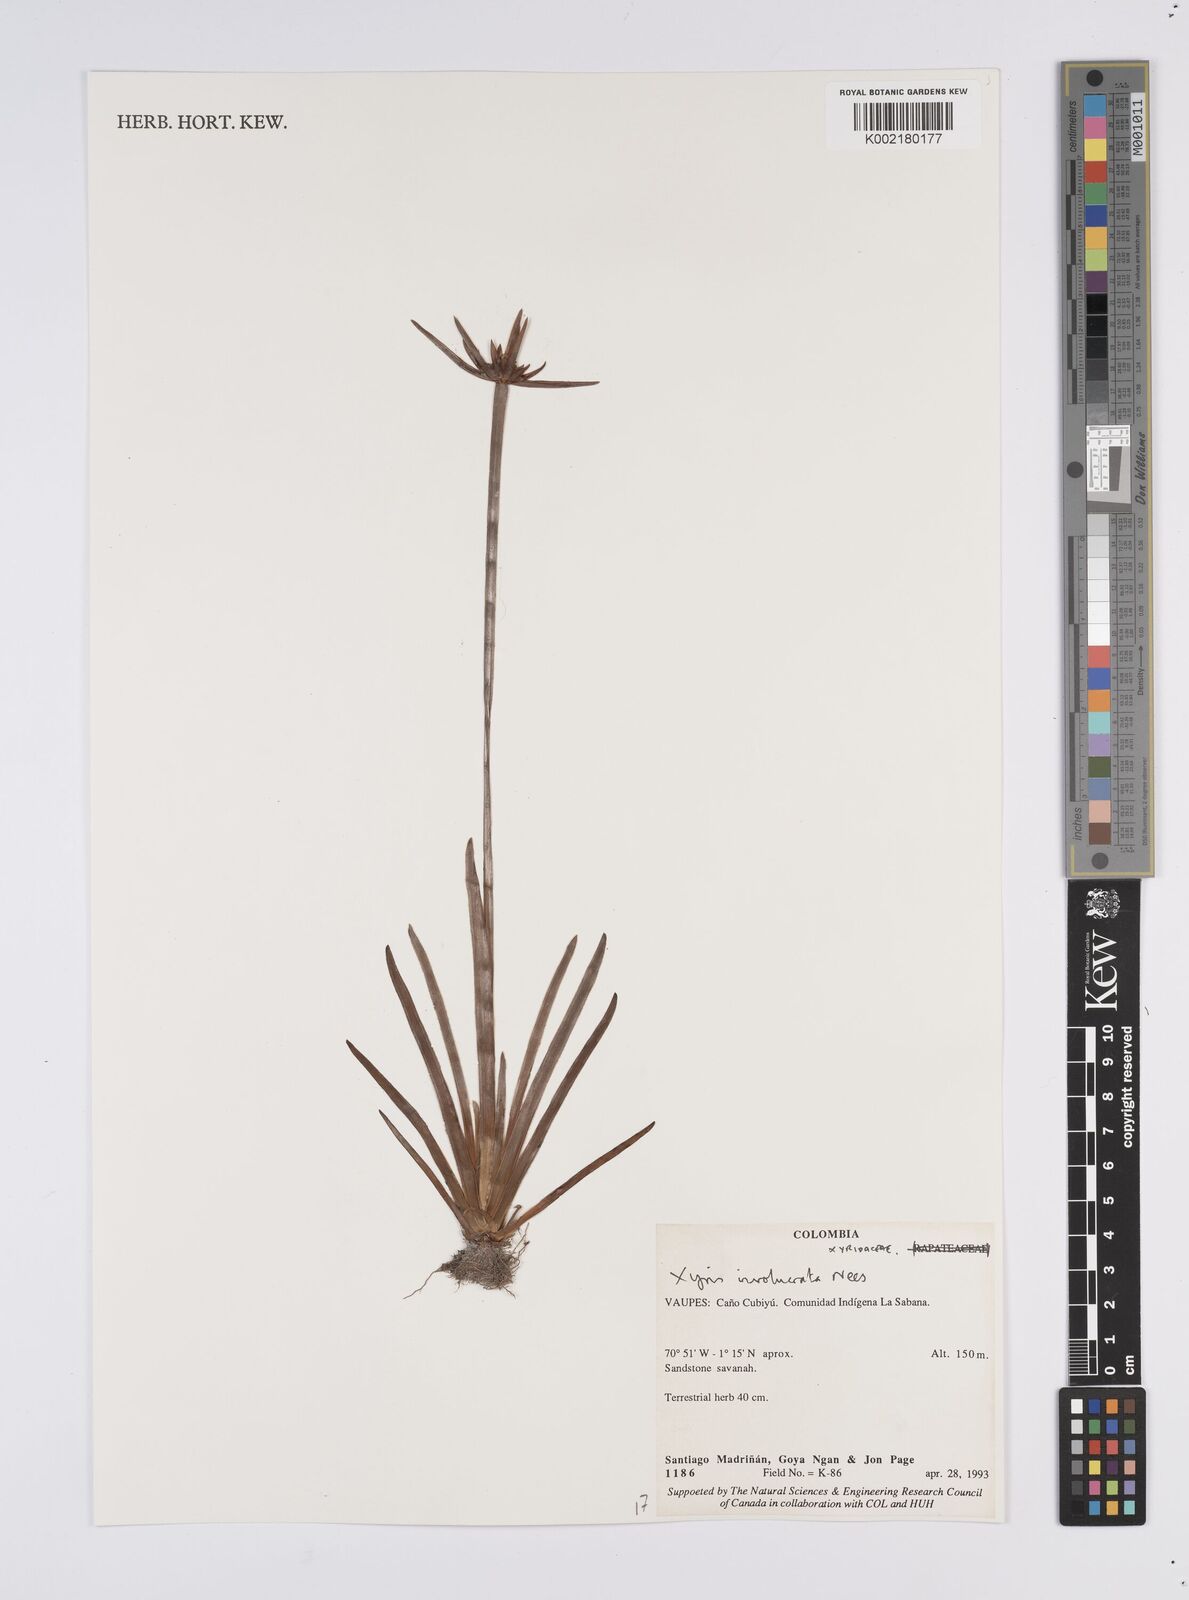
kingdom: Plantae
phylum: Tracheophyta
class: Liliopsida
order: Poales
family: Xyridaceae
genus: Xyris
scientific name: Xyris involucrata
